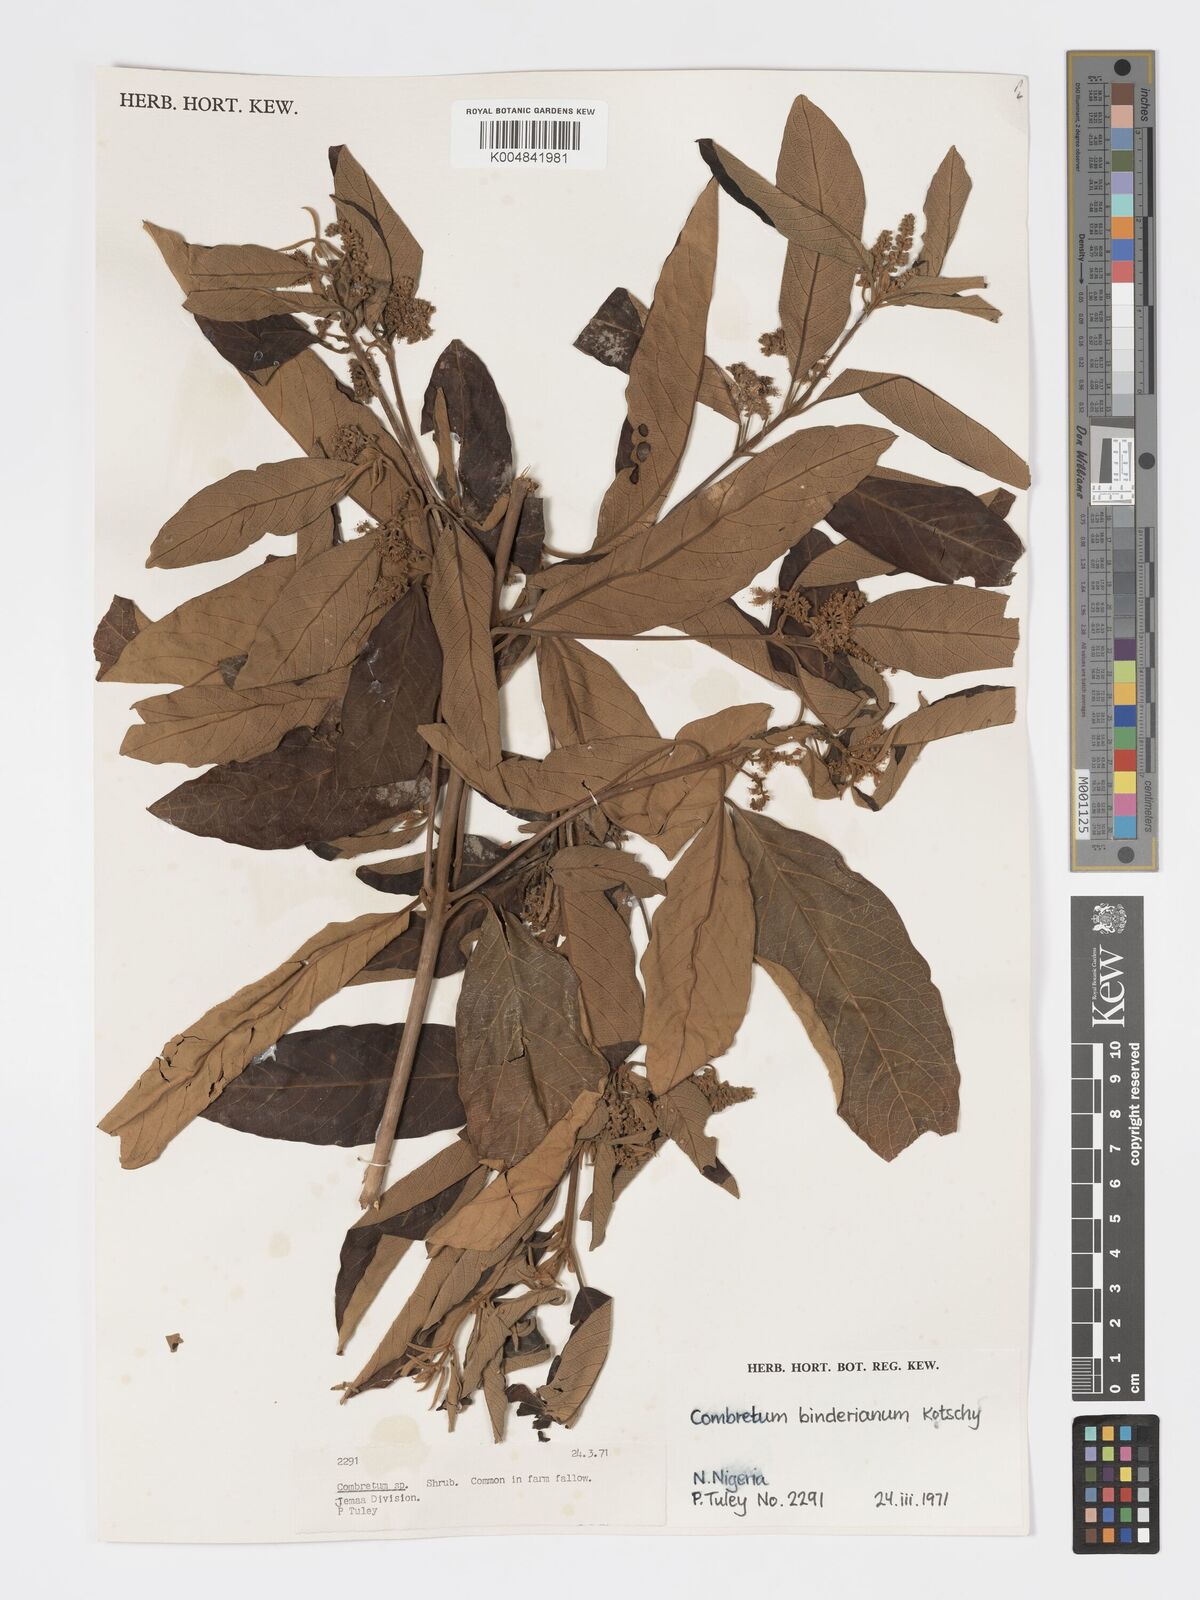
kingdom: Plantae
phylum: Tracheophyta
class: Magnoliopsida
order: Myrtales
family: Combretaceae
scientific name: Combretaceae
